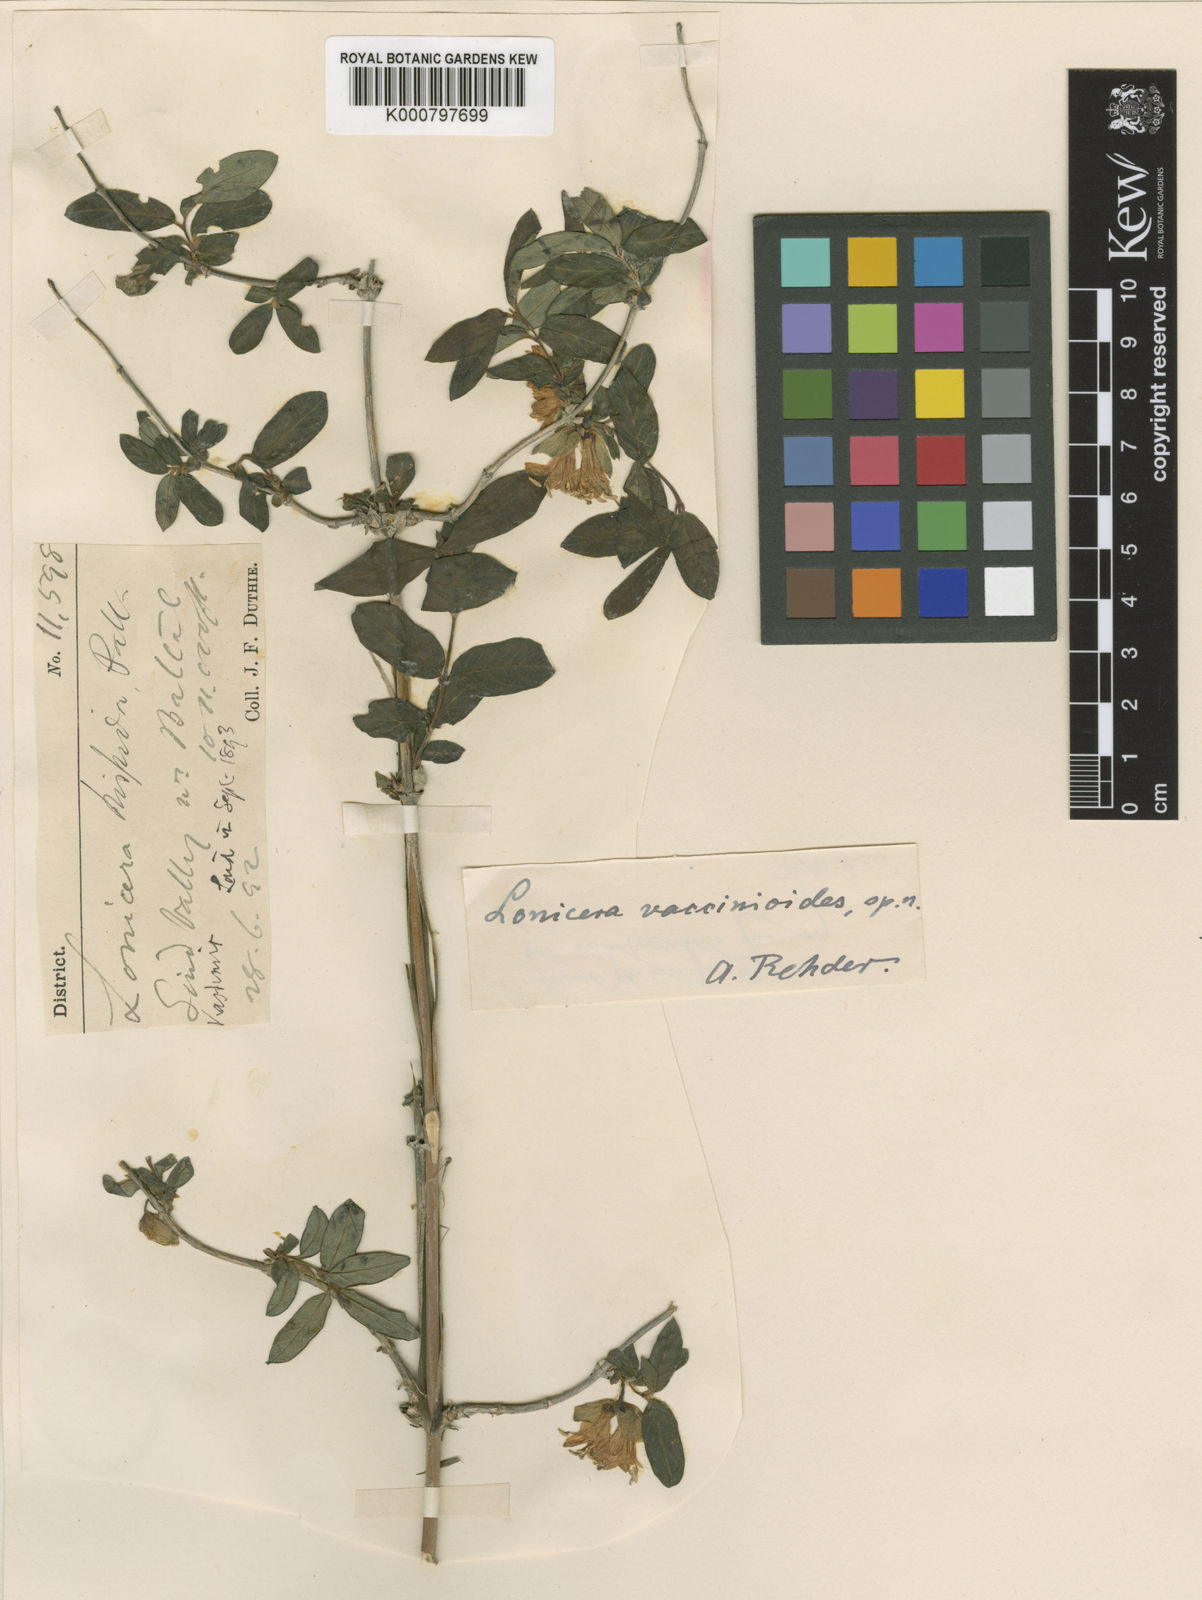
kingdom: Plantae
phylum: Tracheophyta
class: Magnoliopsida
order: Dipsacales
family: Caprifoliaceae
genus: Lonicera
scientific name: Lonicera hispida
